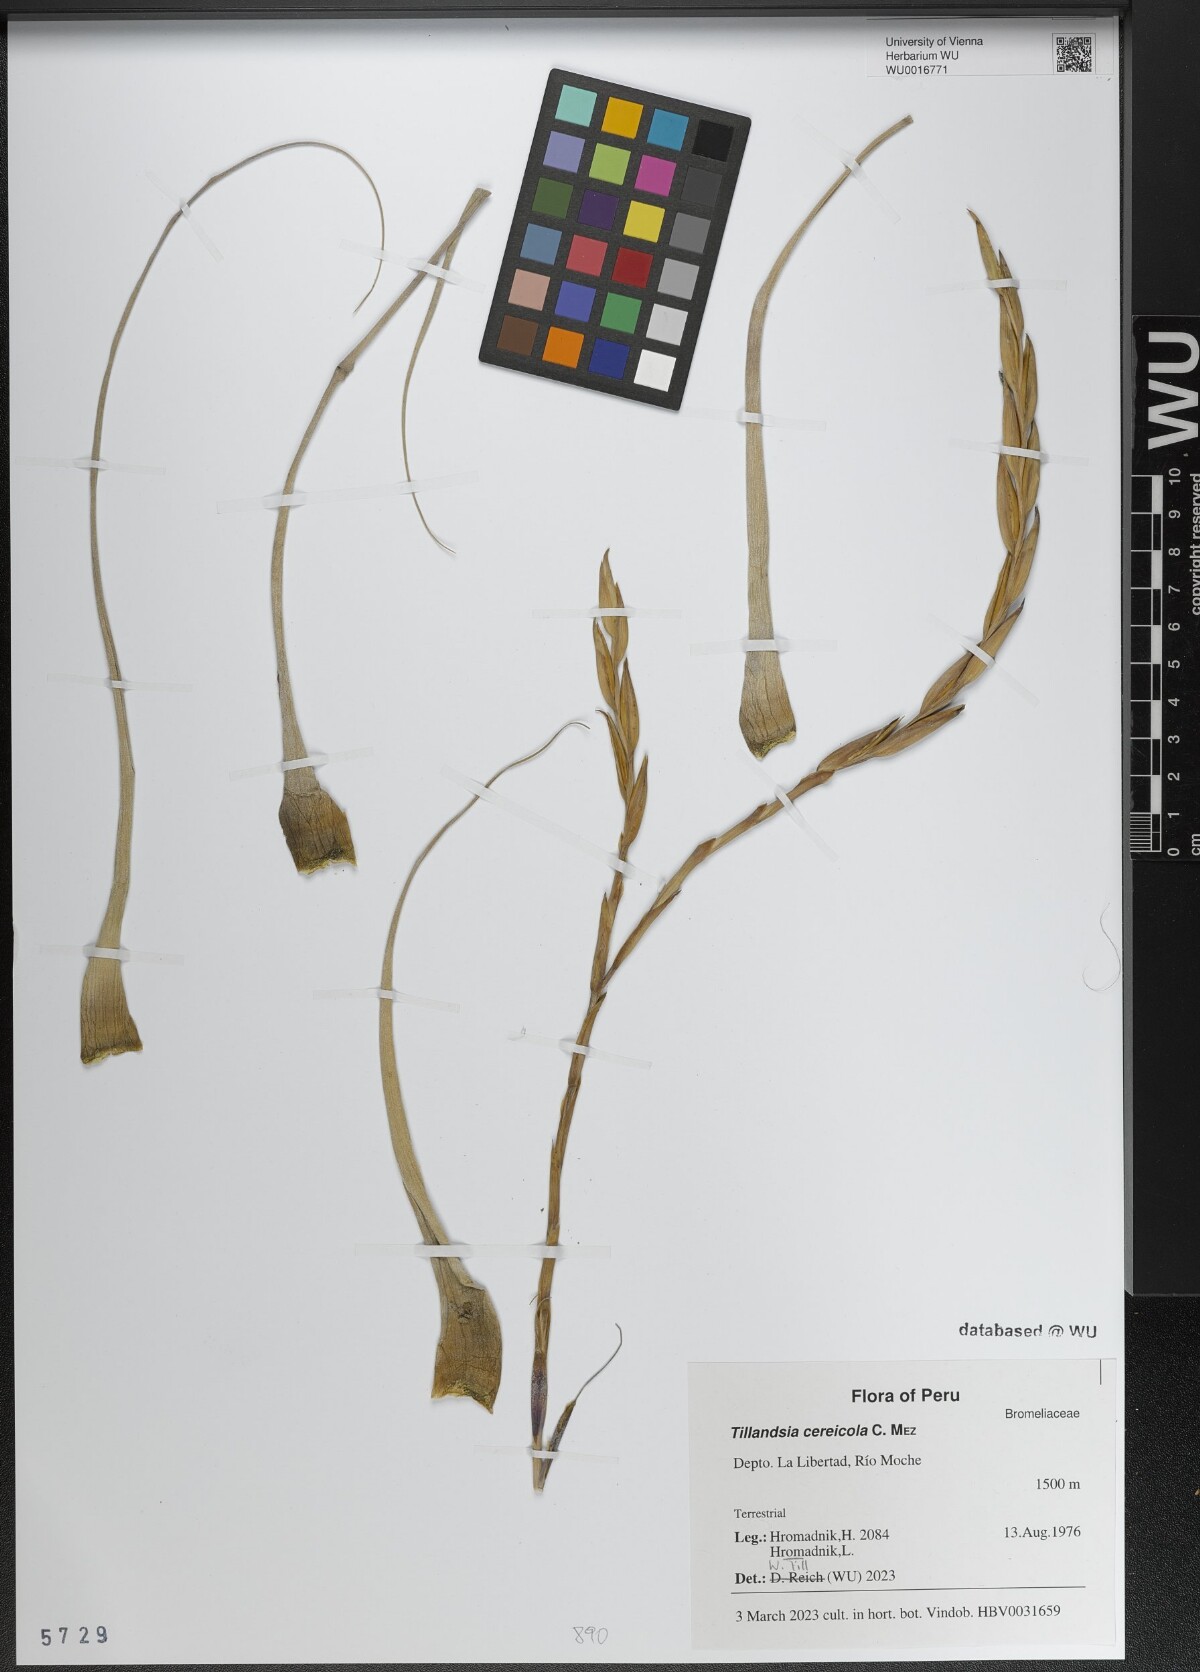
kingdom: Plantae
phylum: Tracheophyta
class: Liliopsida
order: Poales
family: Bromeliaceae
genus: Vriesea
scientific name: Vriesea cereicola
